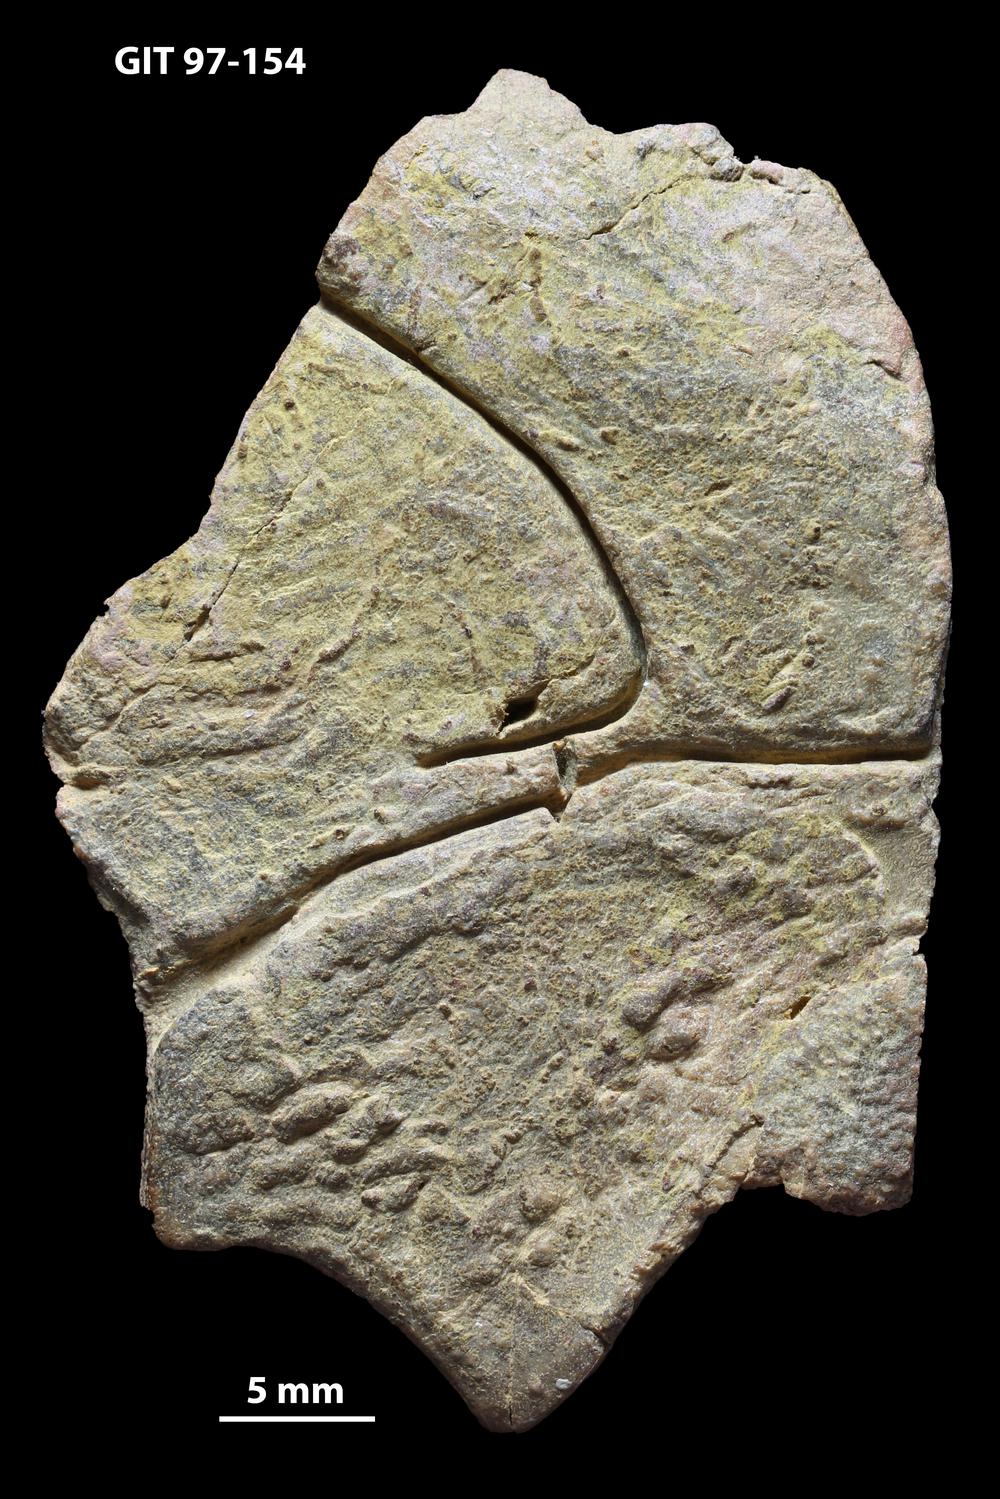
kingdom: Animalia
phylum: Chordata
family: Holonematidae
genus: Holonema
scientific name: Holonema
